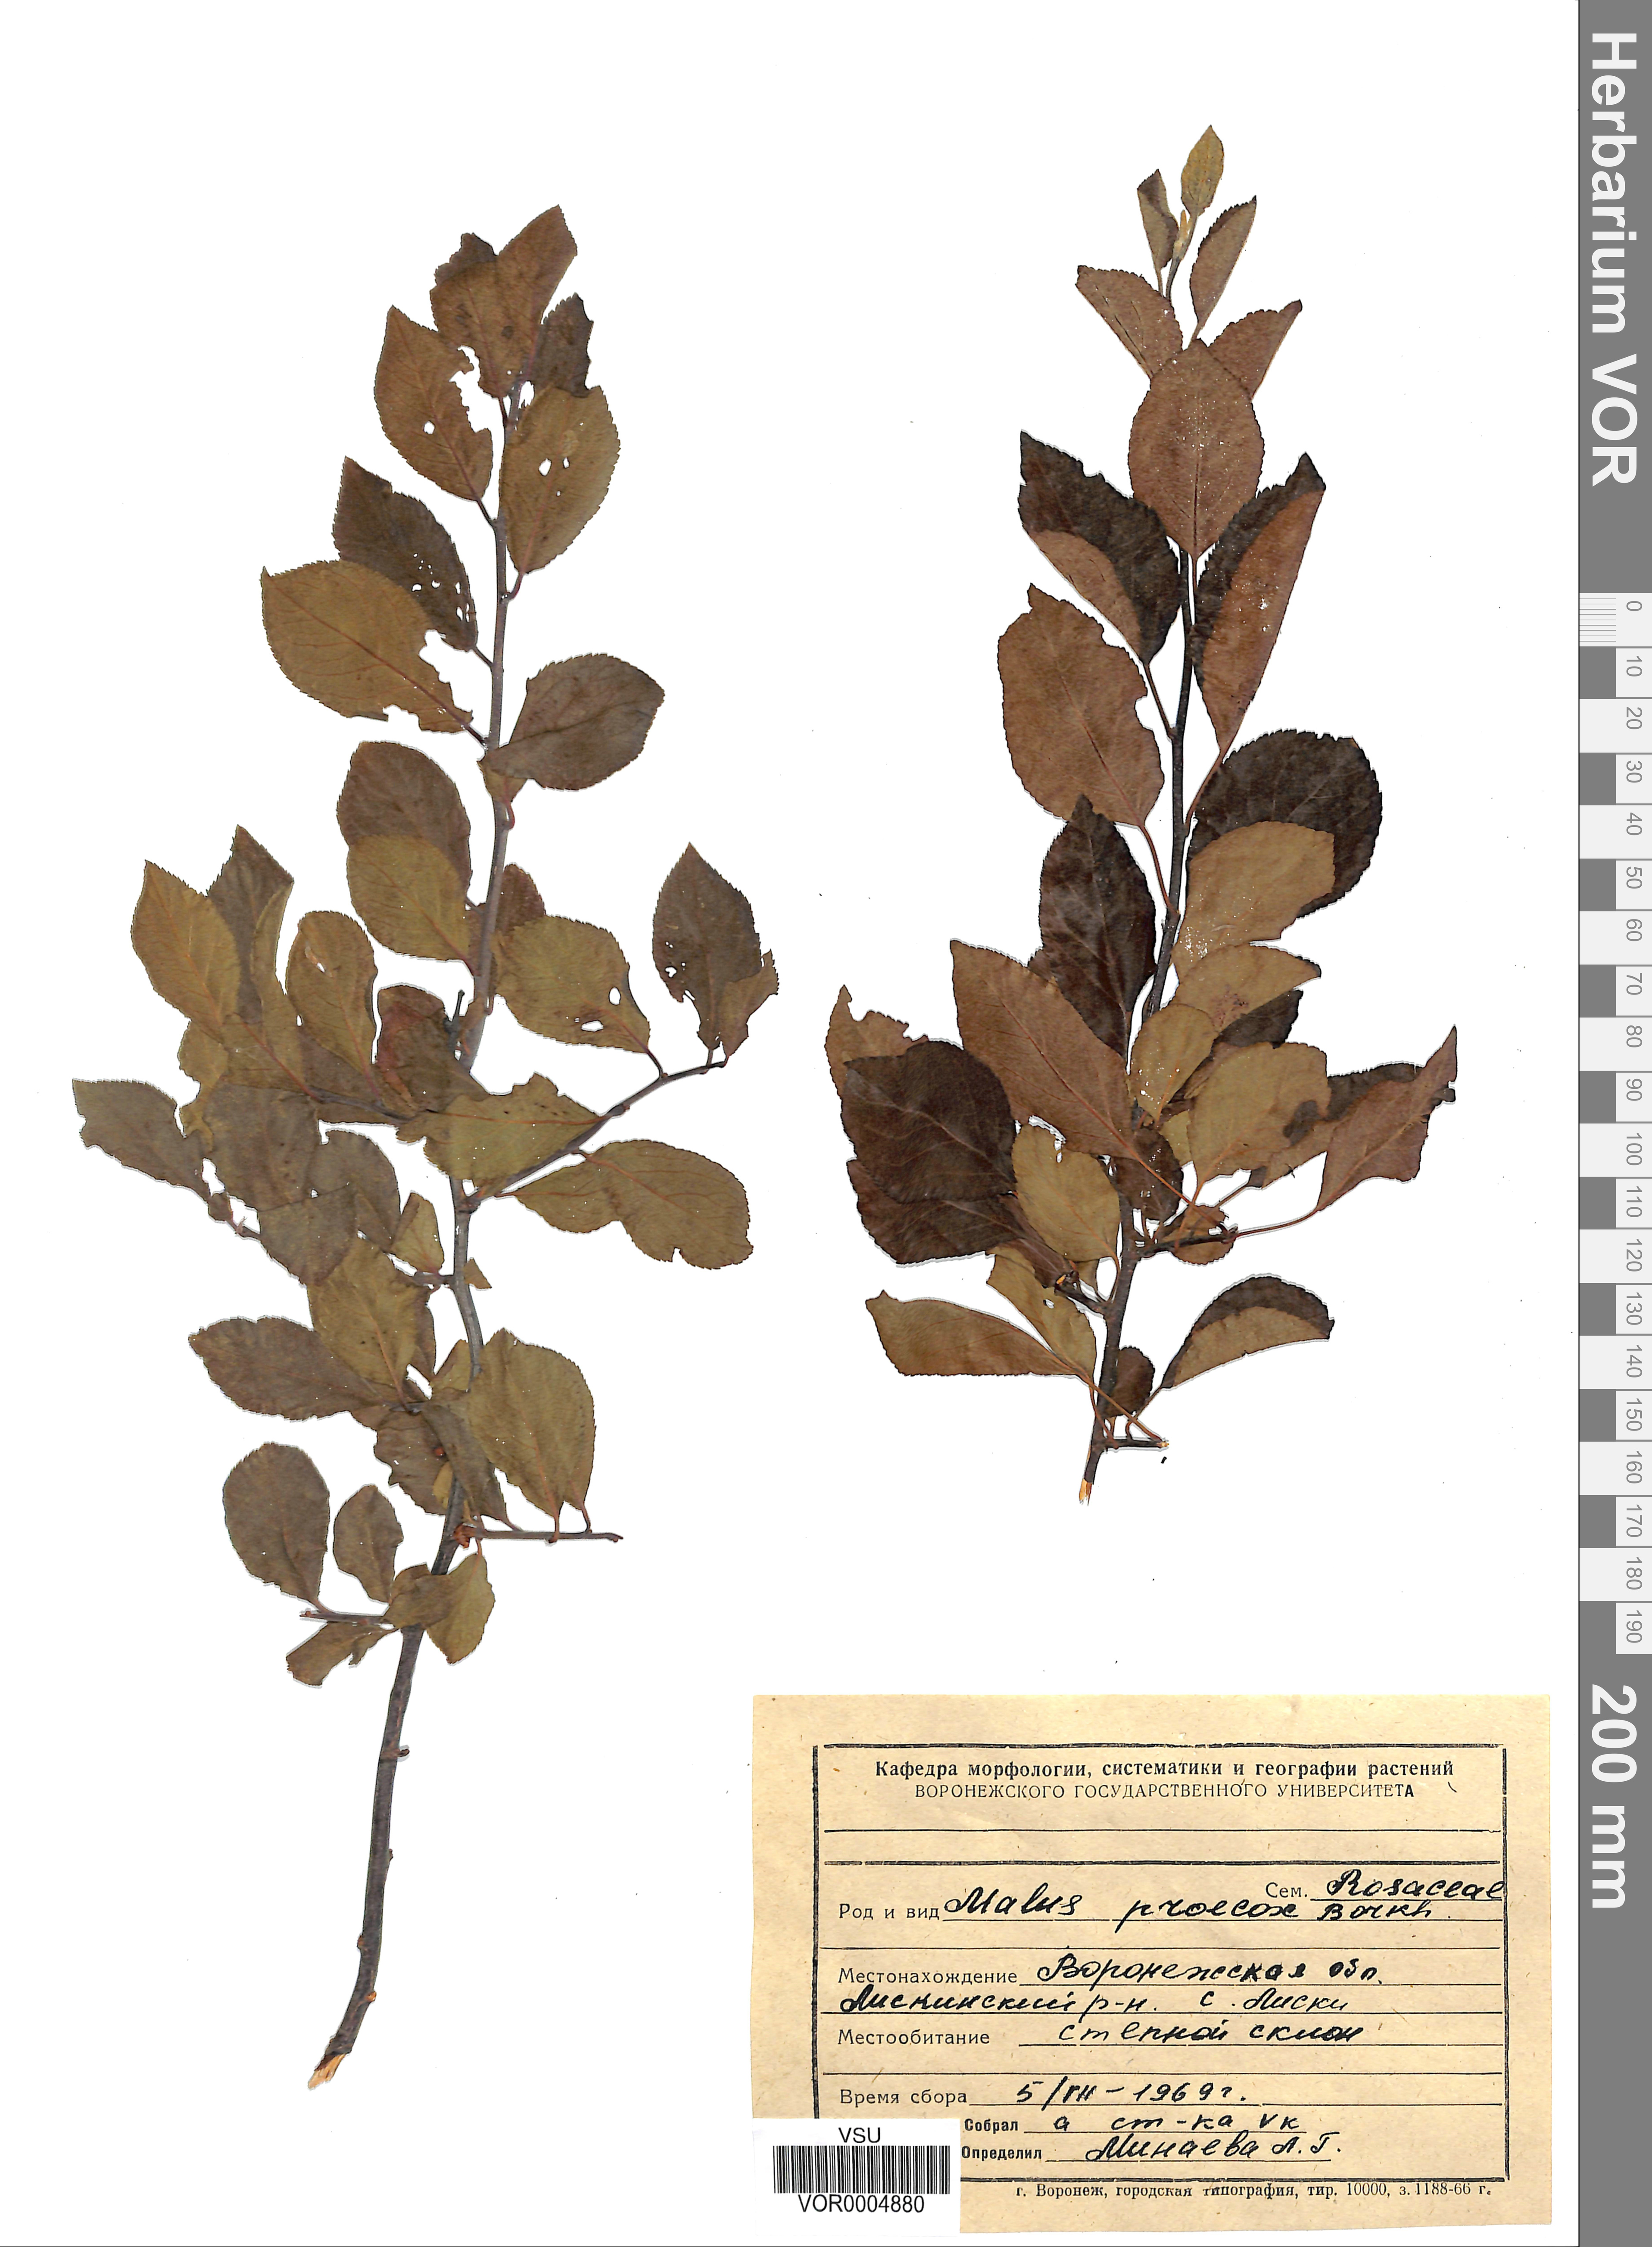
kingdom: Plantae
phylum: Tracheophyta
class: Magnoliopsida
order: Rosales
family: Rosaceae
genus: Malus
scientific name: Malus domestica
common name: Apple
